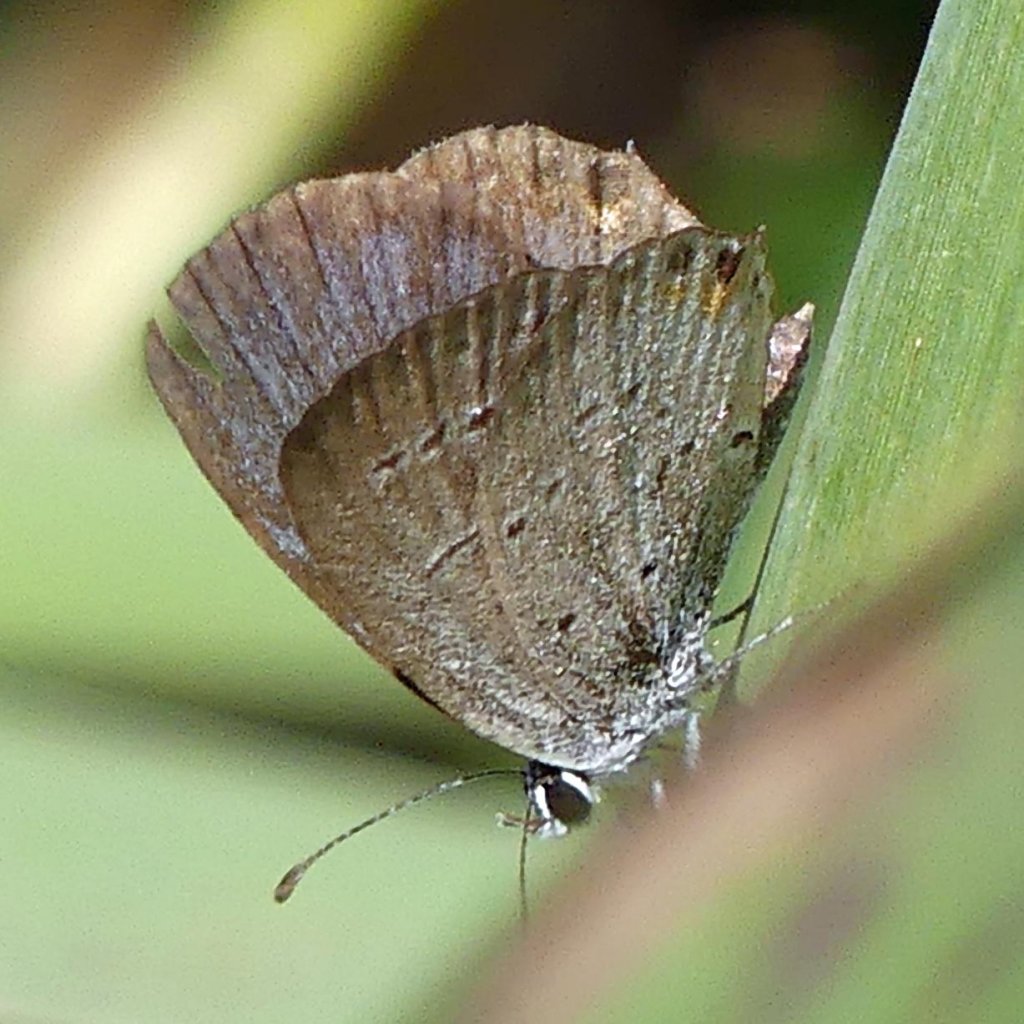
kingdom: Animalia
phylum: Arthropoda
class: Insecta
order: Lepidoptera
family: Lycaenidae
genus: Elkalyce
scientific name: Elkalyce comyntas
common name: Eastern Tailed-Blue
